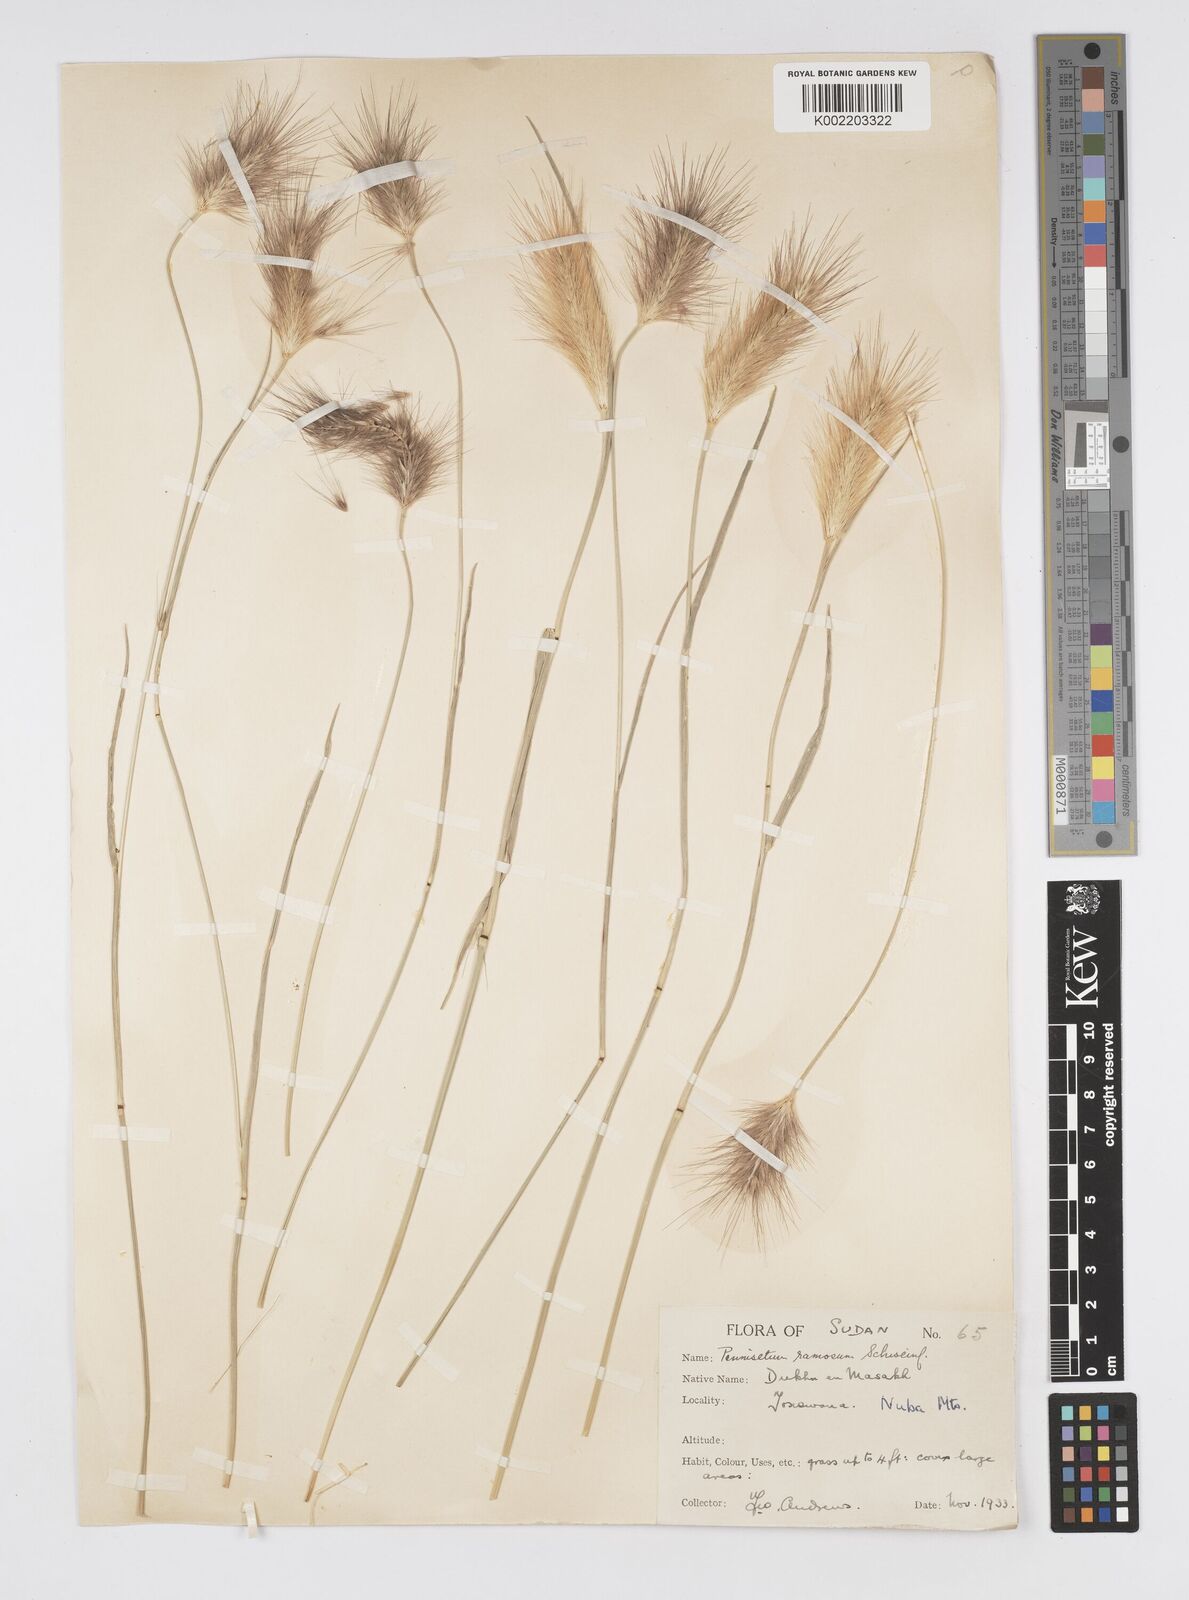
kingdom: Plantae
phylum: Tracheophyta
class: Liliopsida
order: Poales
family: Poaceae
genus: Cenchrus
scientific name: Cenchrus ramosus
